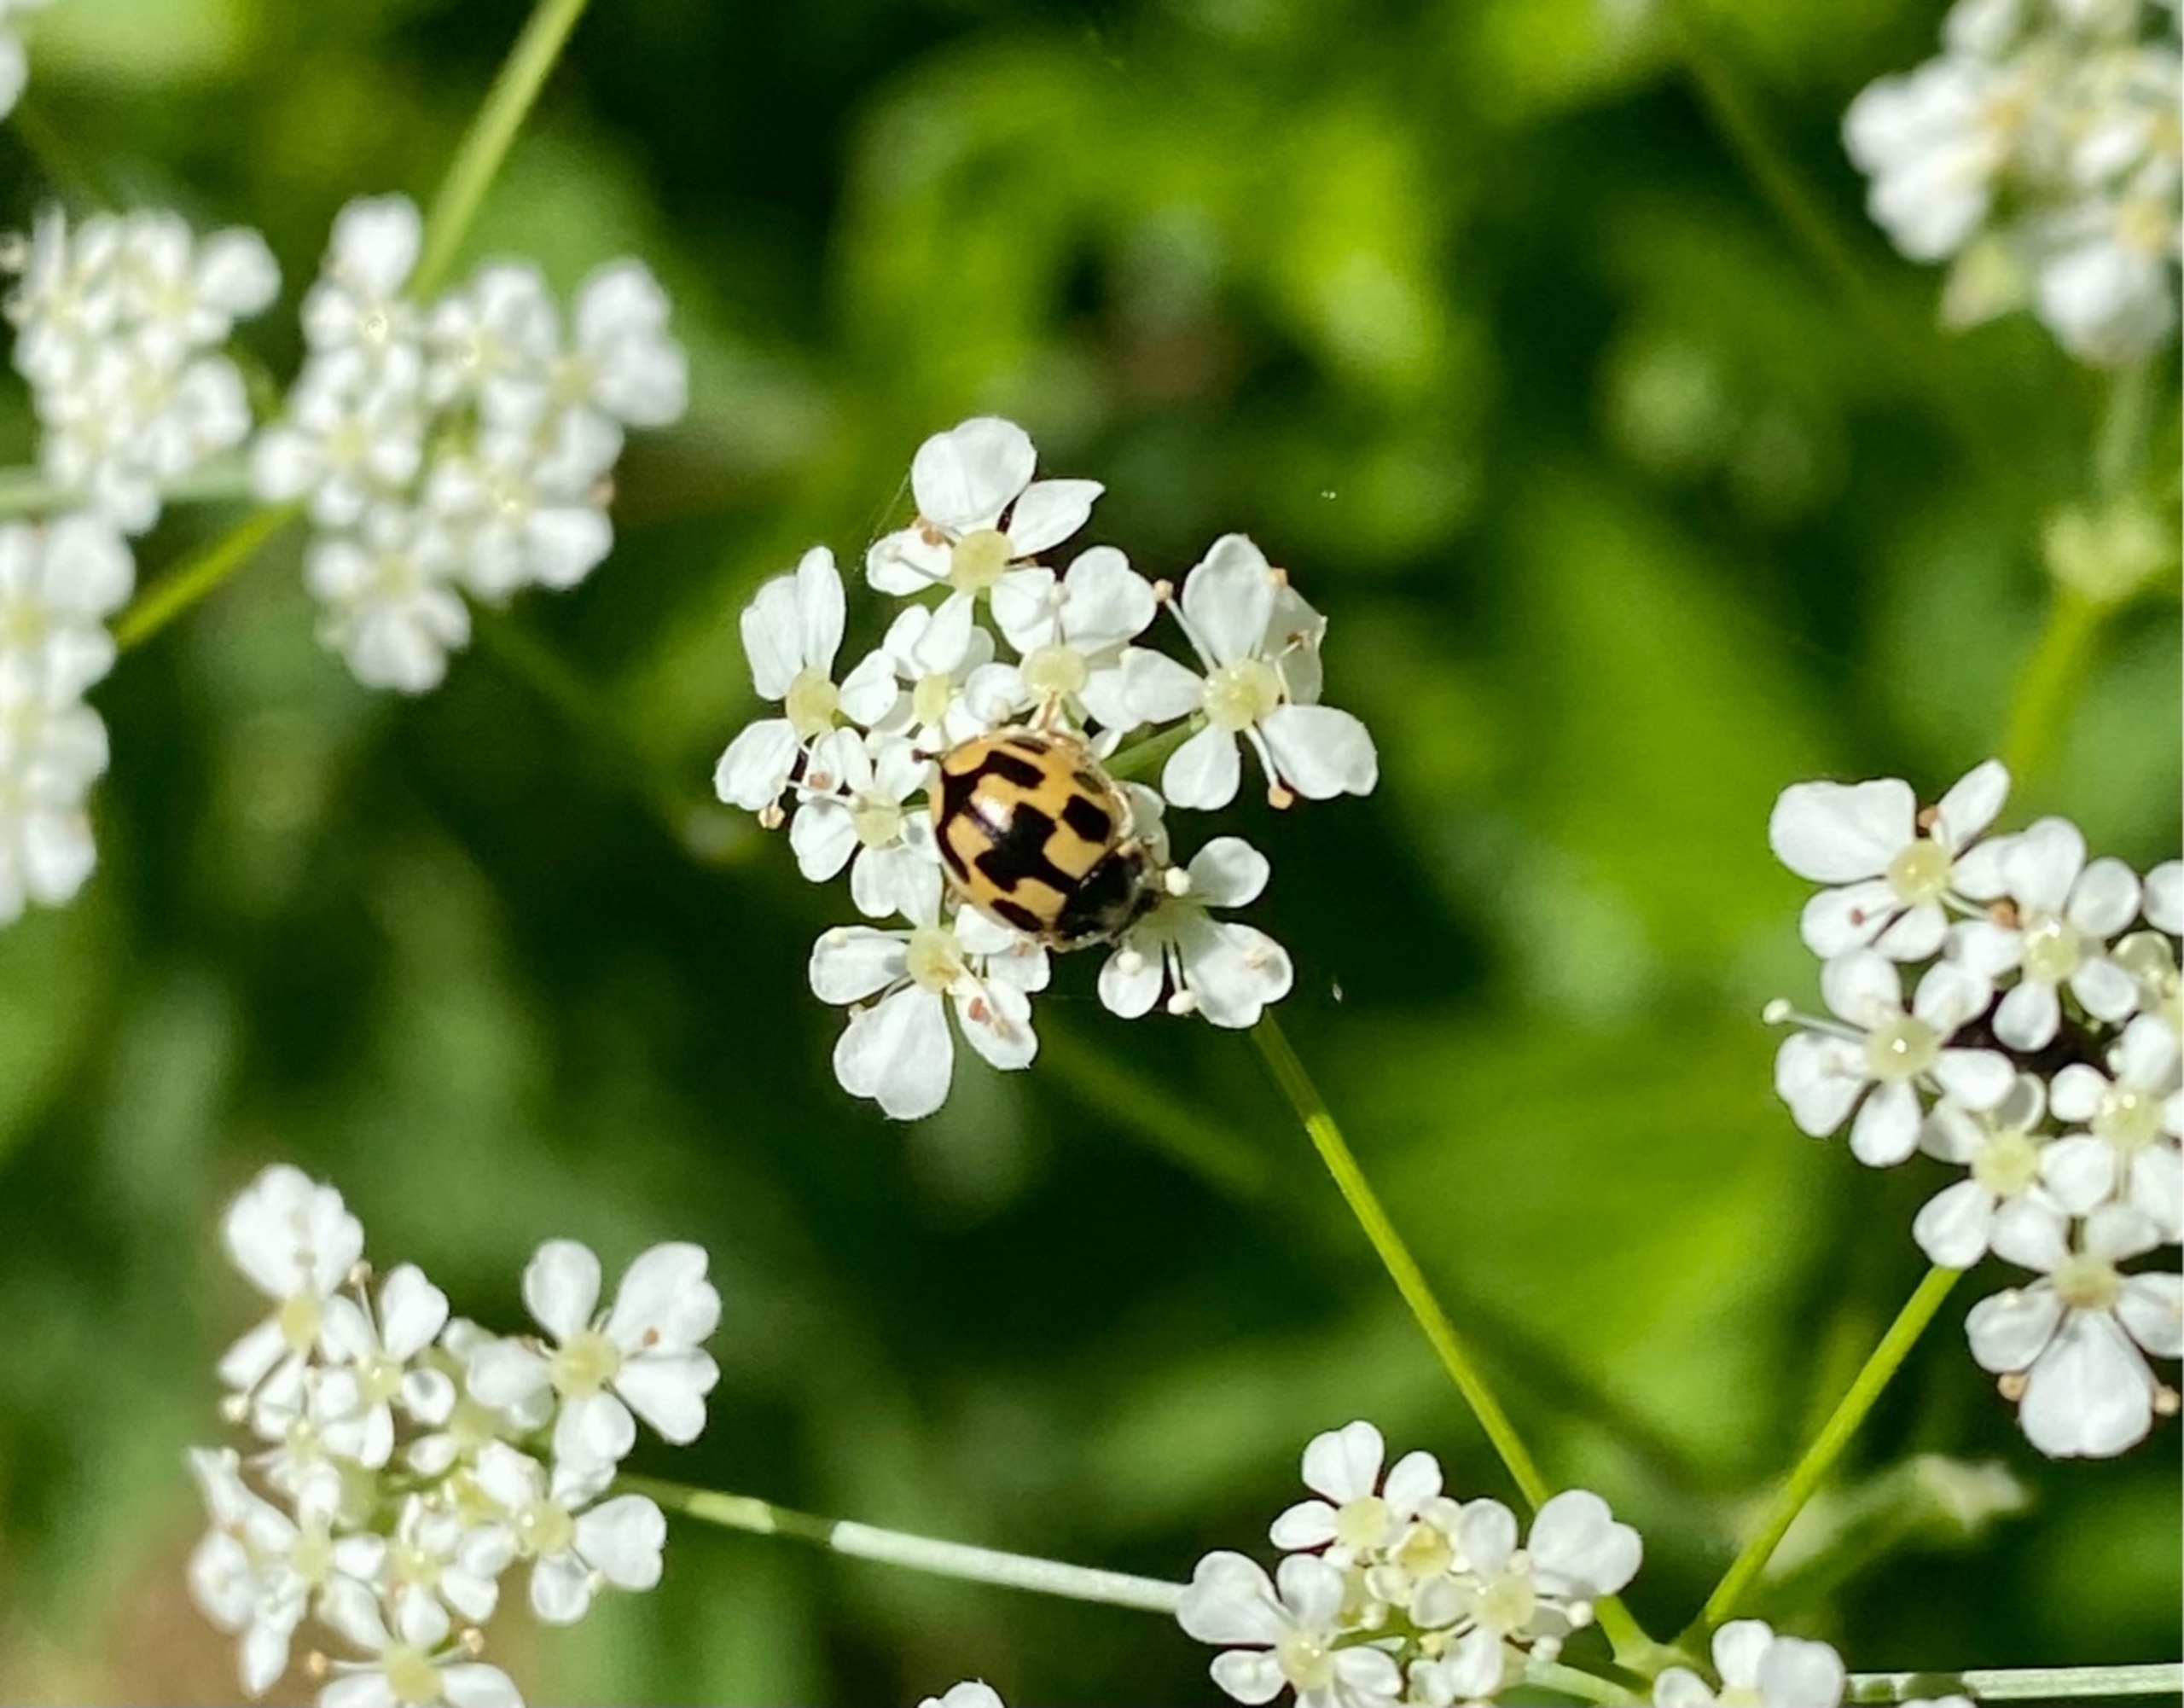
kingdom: Animalia
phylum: Arthropoda
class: Insecta
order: Coleoptera
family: Coccinellidae
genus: Propylaea
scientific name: Propylaea quatuordecimpunctata
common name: Skakbræt
